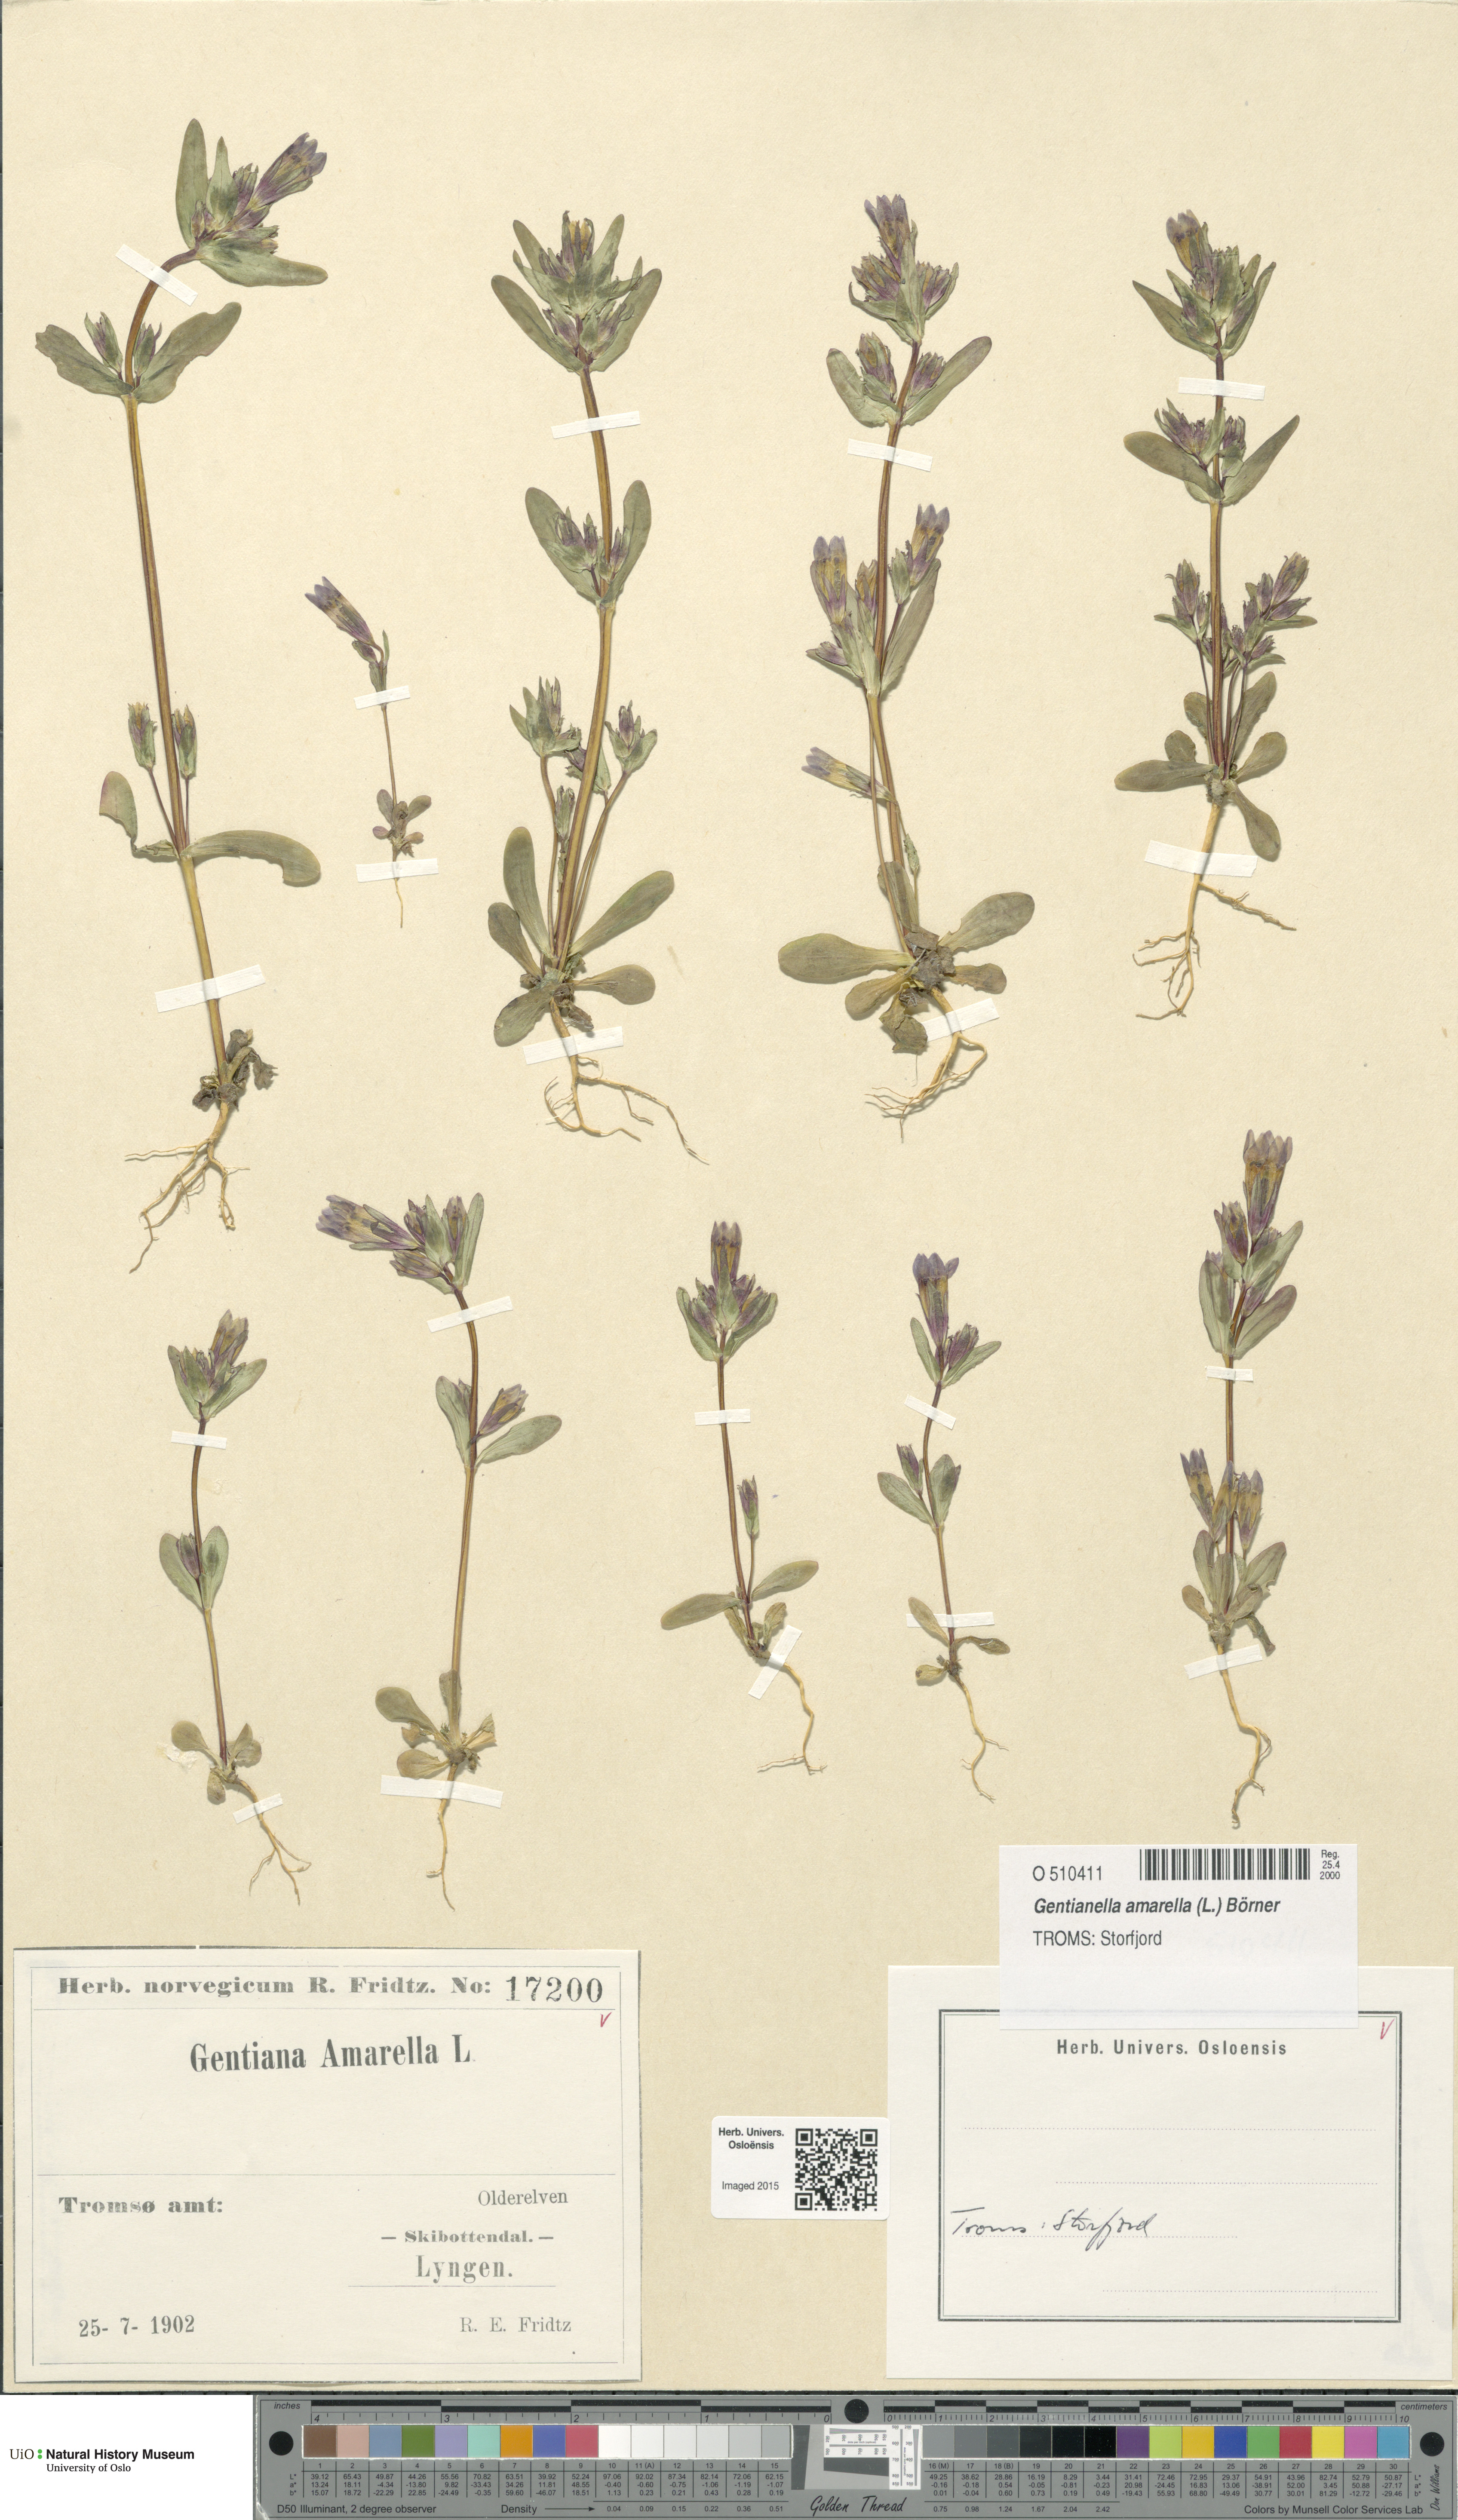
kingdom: Plantae
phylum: Tracheophyta
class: Magnoliopsida
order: Gentianales
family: Gentianaceae
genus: Gentianella
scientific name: Gentianella amarella
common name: Autumn gentian
